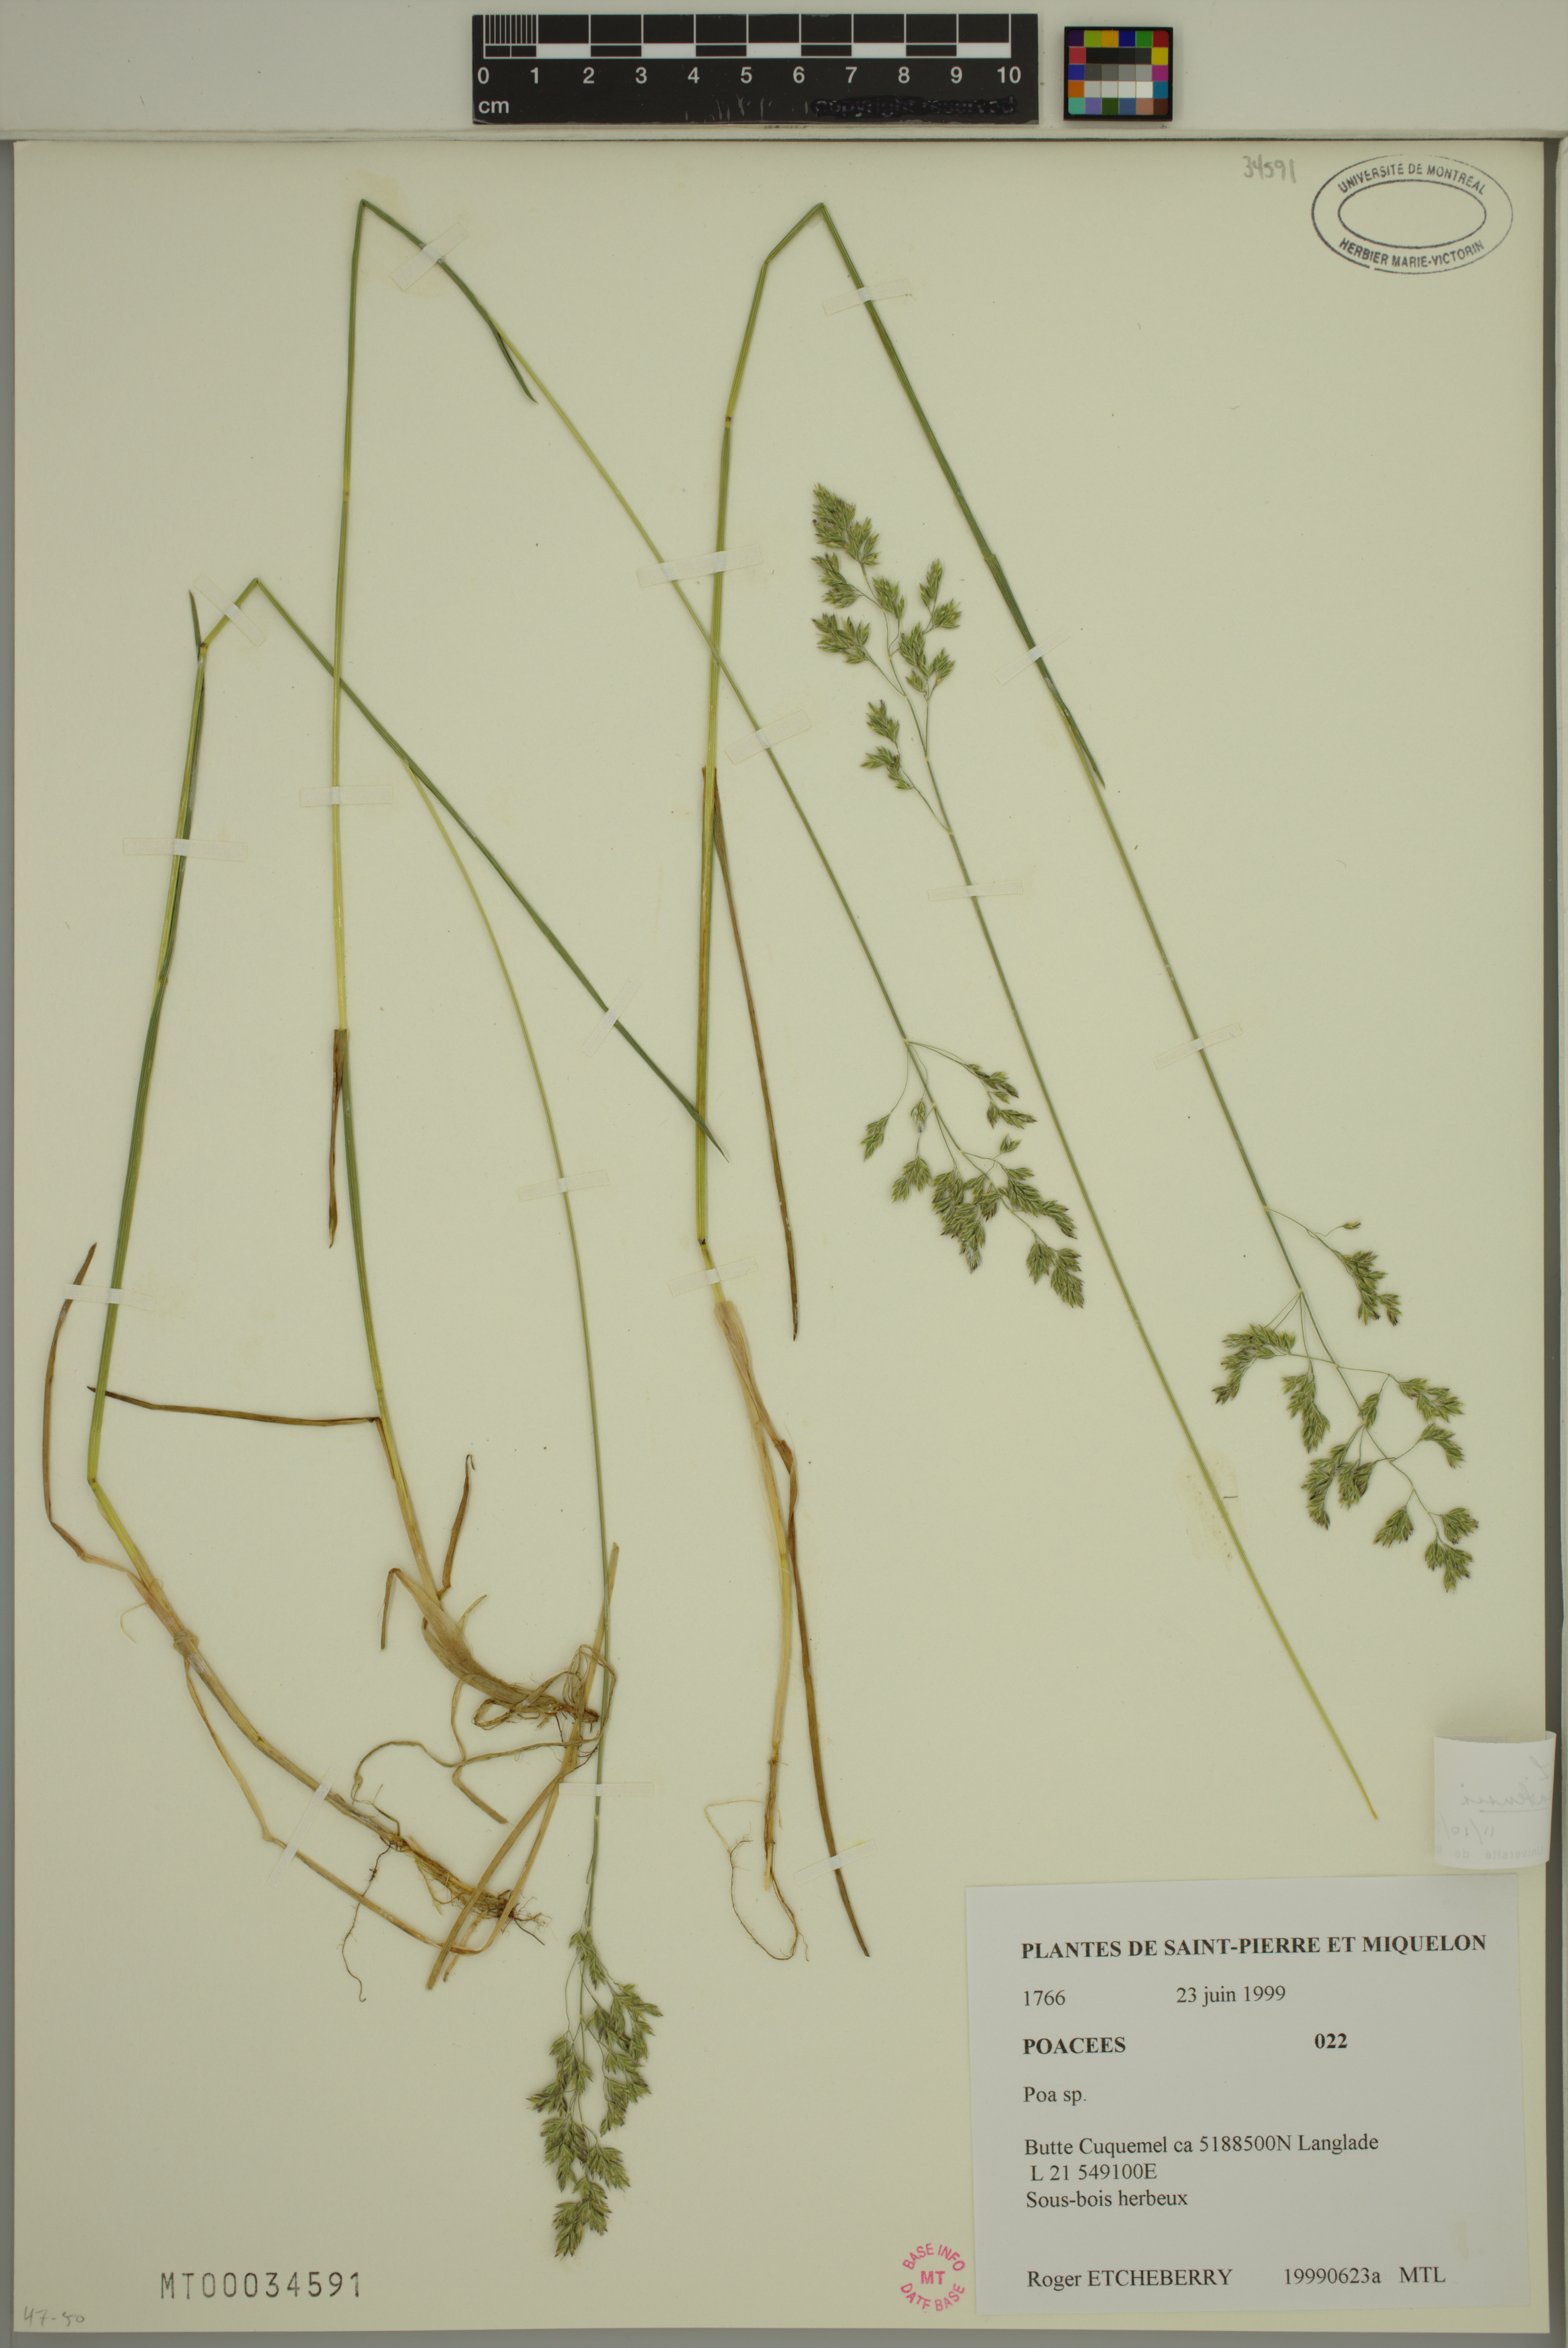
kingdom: Plantae
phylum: Tracheophyta
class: Liliopsida
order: Poales
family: Poaceae
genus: Poa
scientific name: Poa pratensis
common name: Kentucky bluegrass
